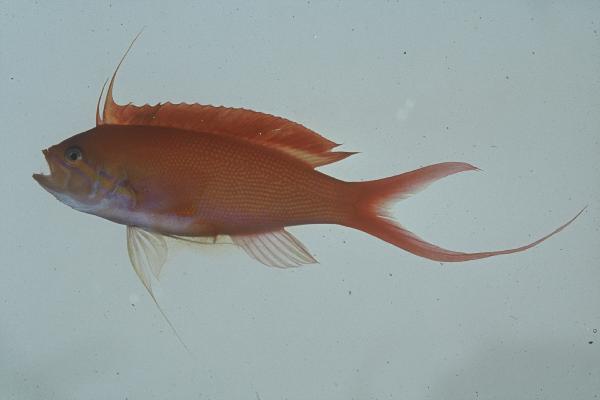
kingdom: Animalia
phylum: Chordata
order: Perciformes
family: Serranidae
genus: Nemanthias
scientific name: Nemanthias carberryi
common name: Threadfin anthias
